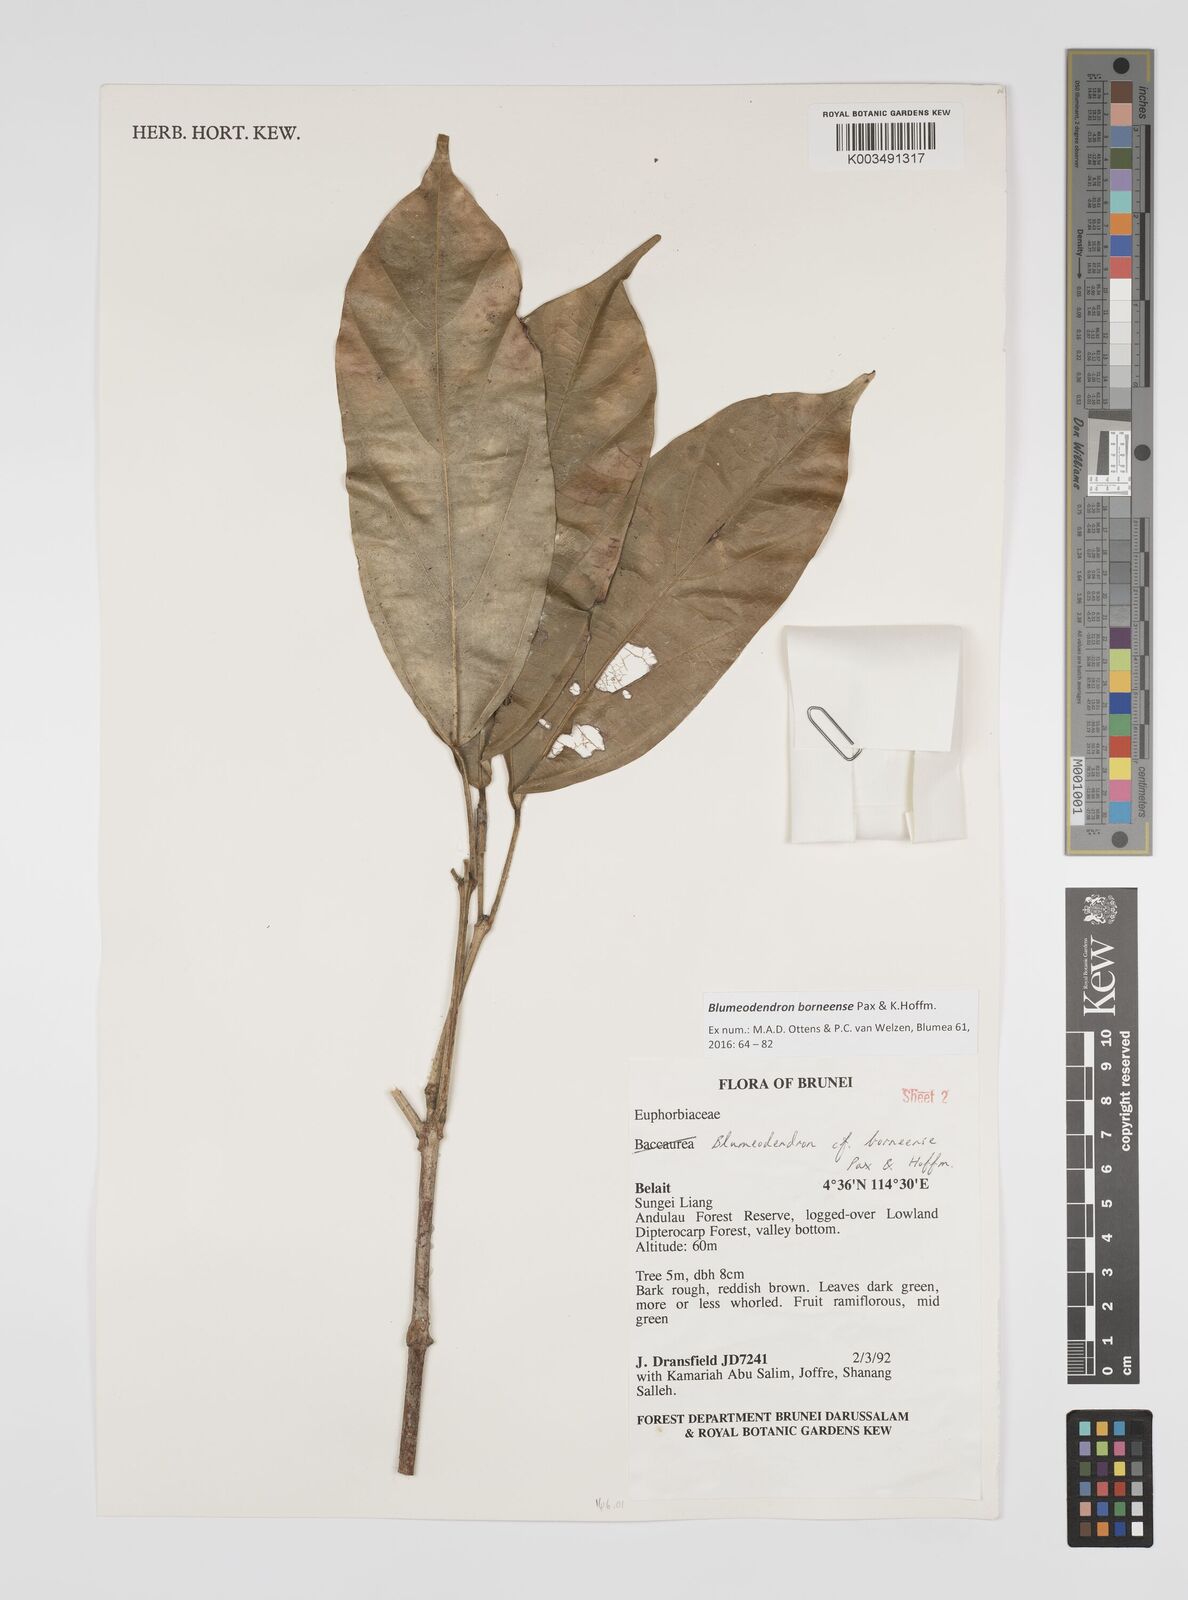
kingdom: Plantae
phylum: Tracheophyta
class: Magnoliopsida
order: Malpighiales
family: Euphorbiaceae
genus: Blumeodendron
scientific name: Blumeodendron borneense
